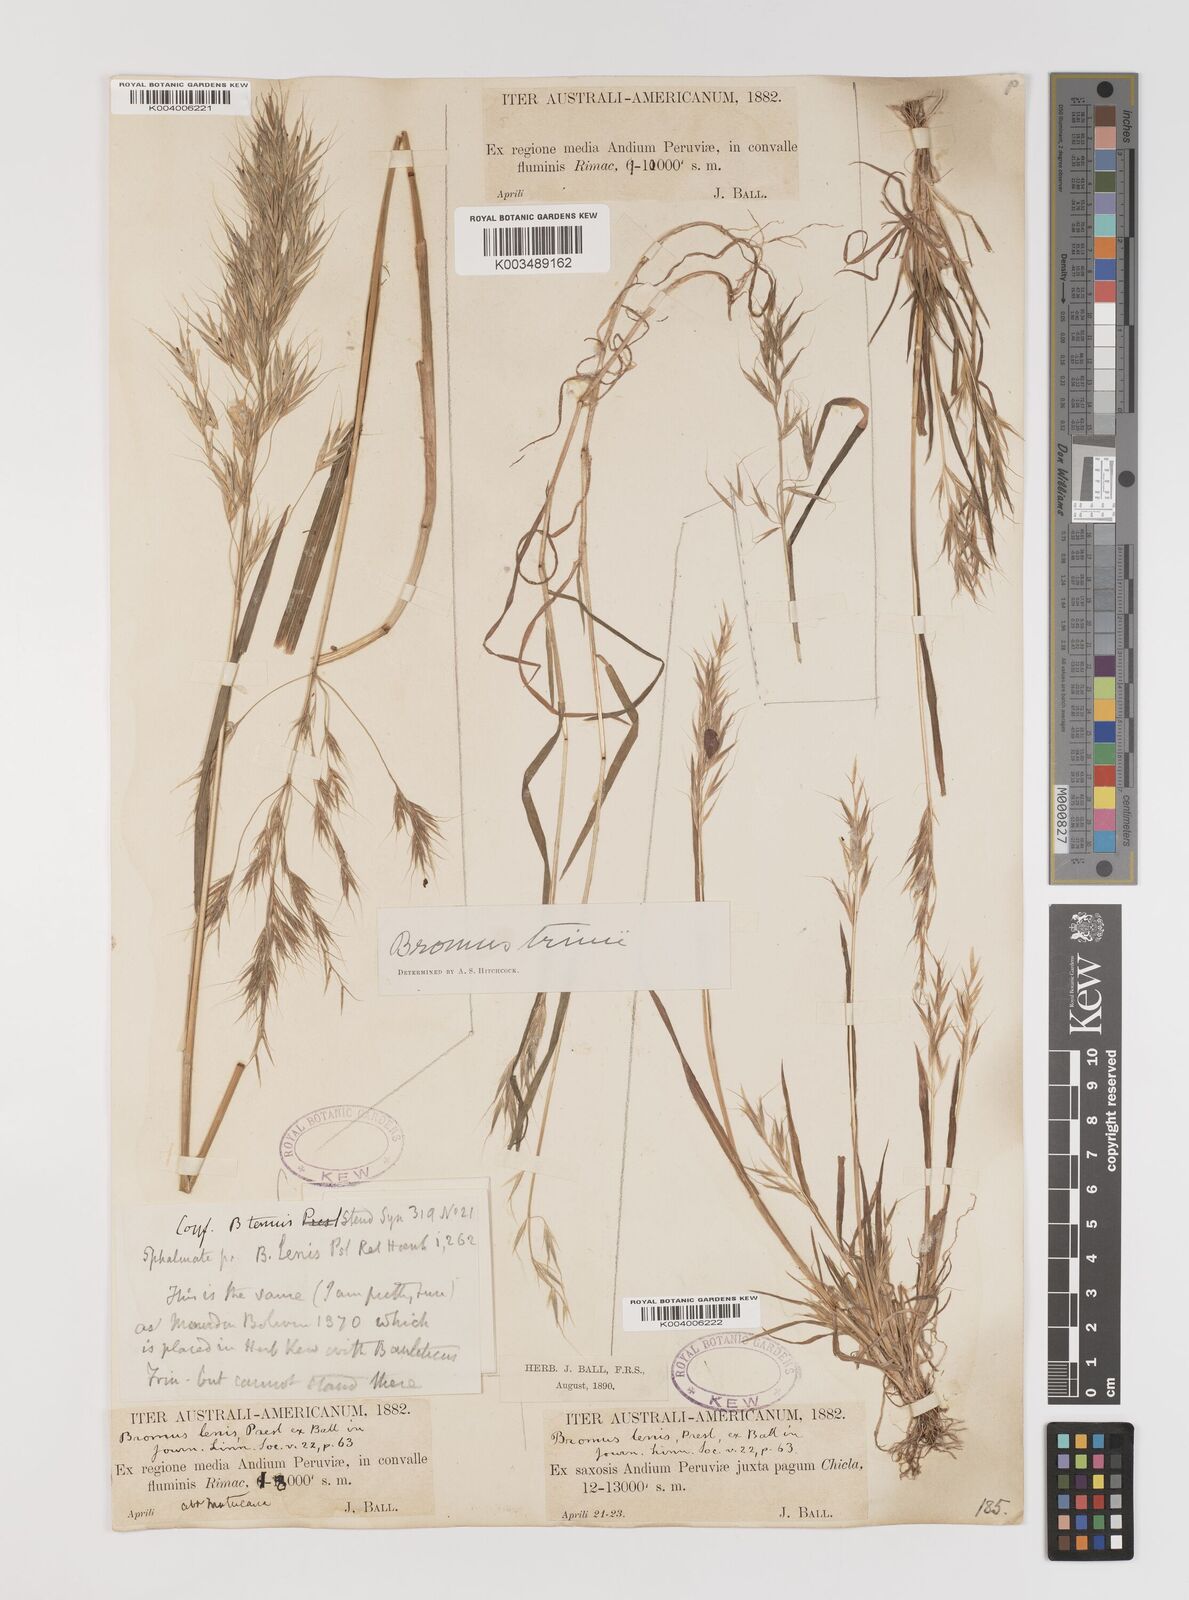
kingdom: Plantae
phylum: Tracheophyta
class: Liliopsida
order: Poales
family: Poaceae
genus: Bromus
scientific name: Bromus berteroanus
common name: Chilean chess
